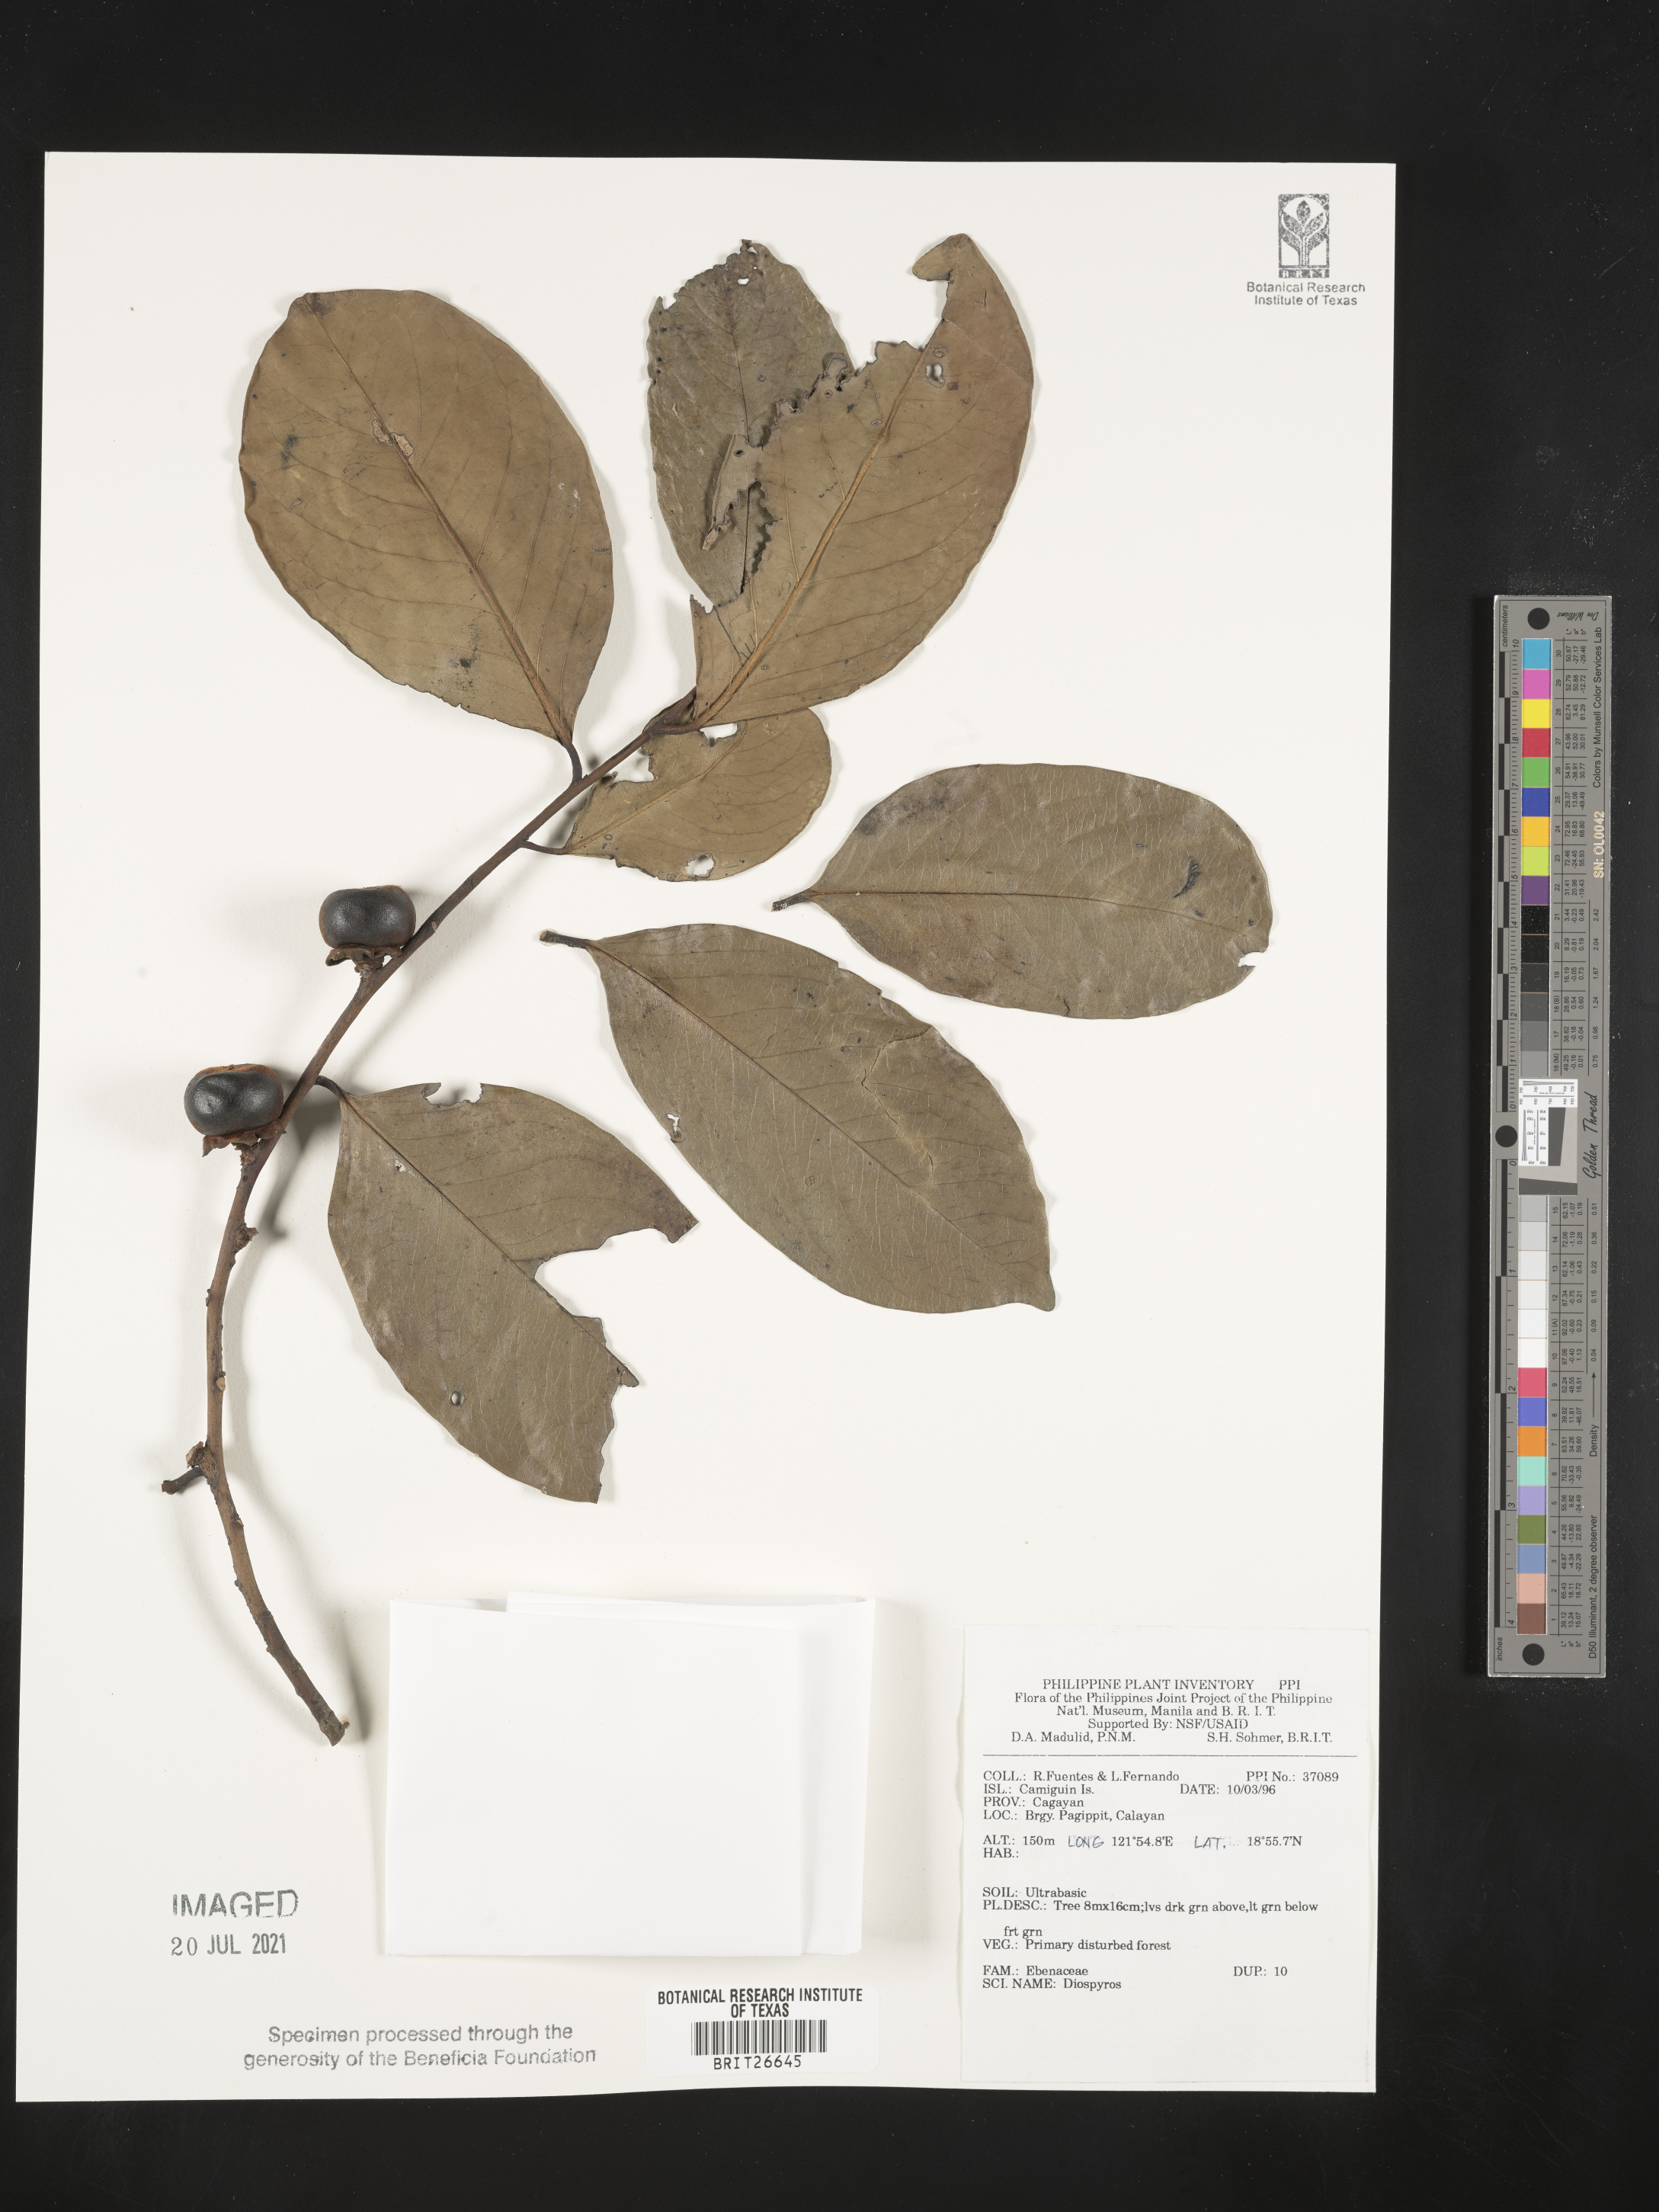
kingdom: Plantae
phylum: Tracheophyta
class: Magnoliopsida
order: Ericales
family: Ebenaceae
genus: Diospyros
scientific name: Diospyros
